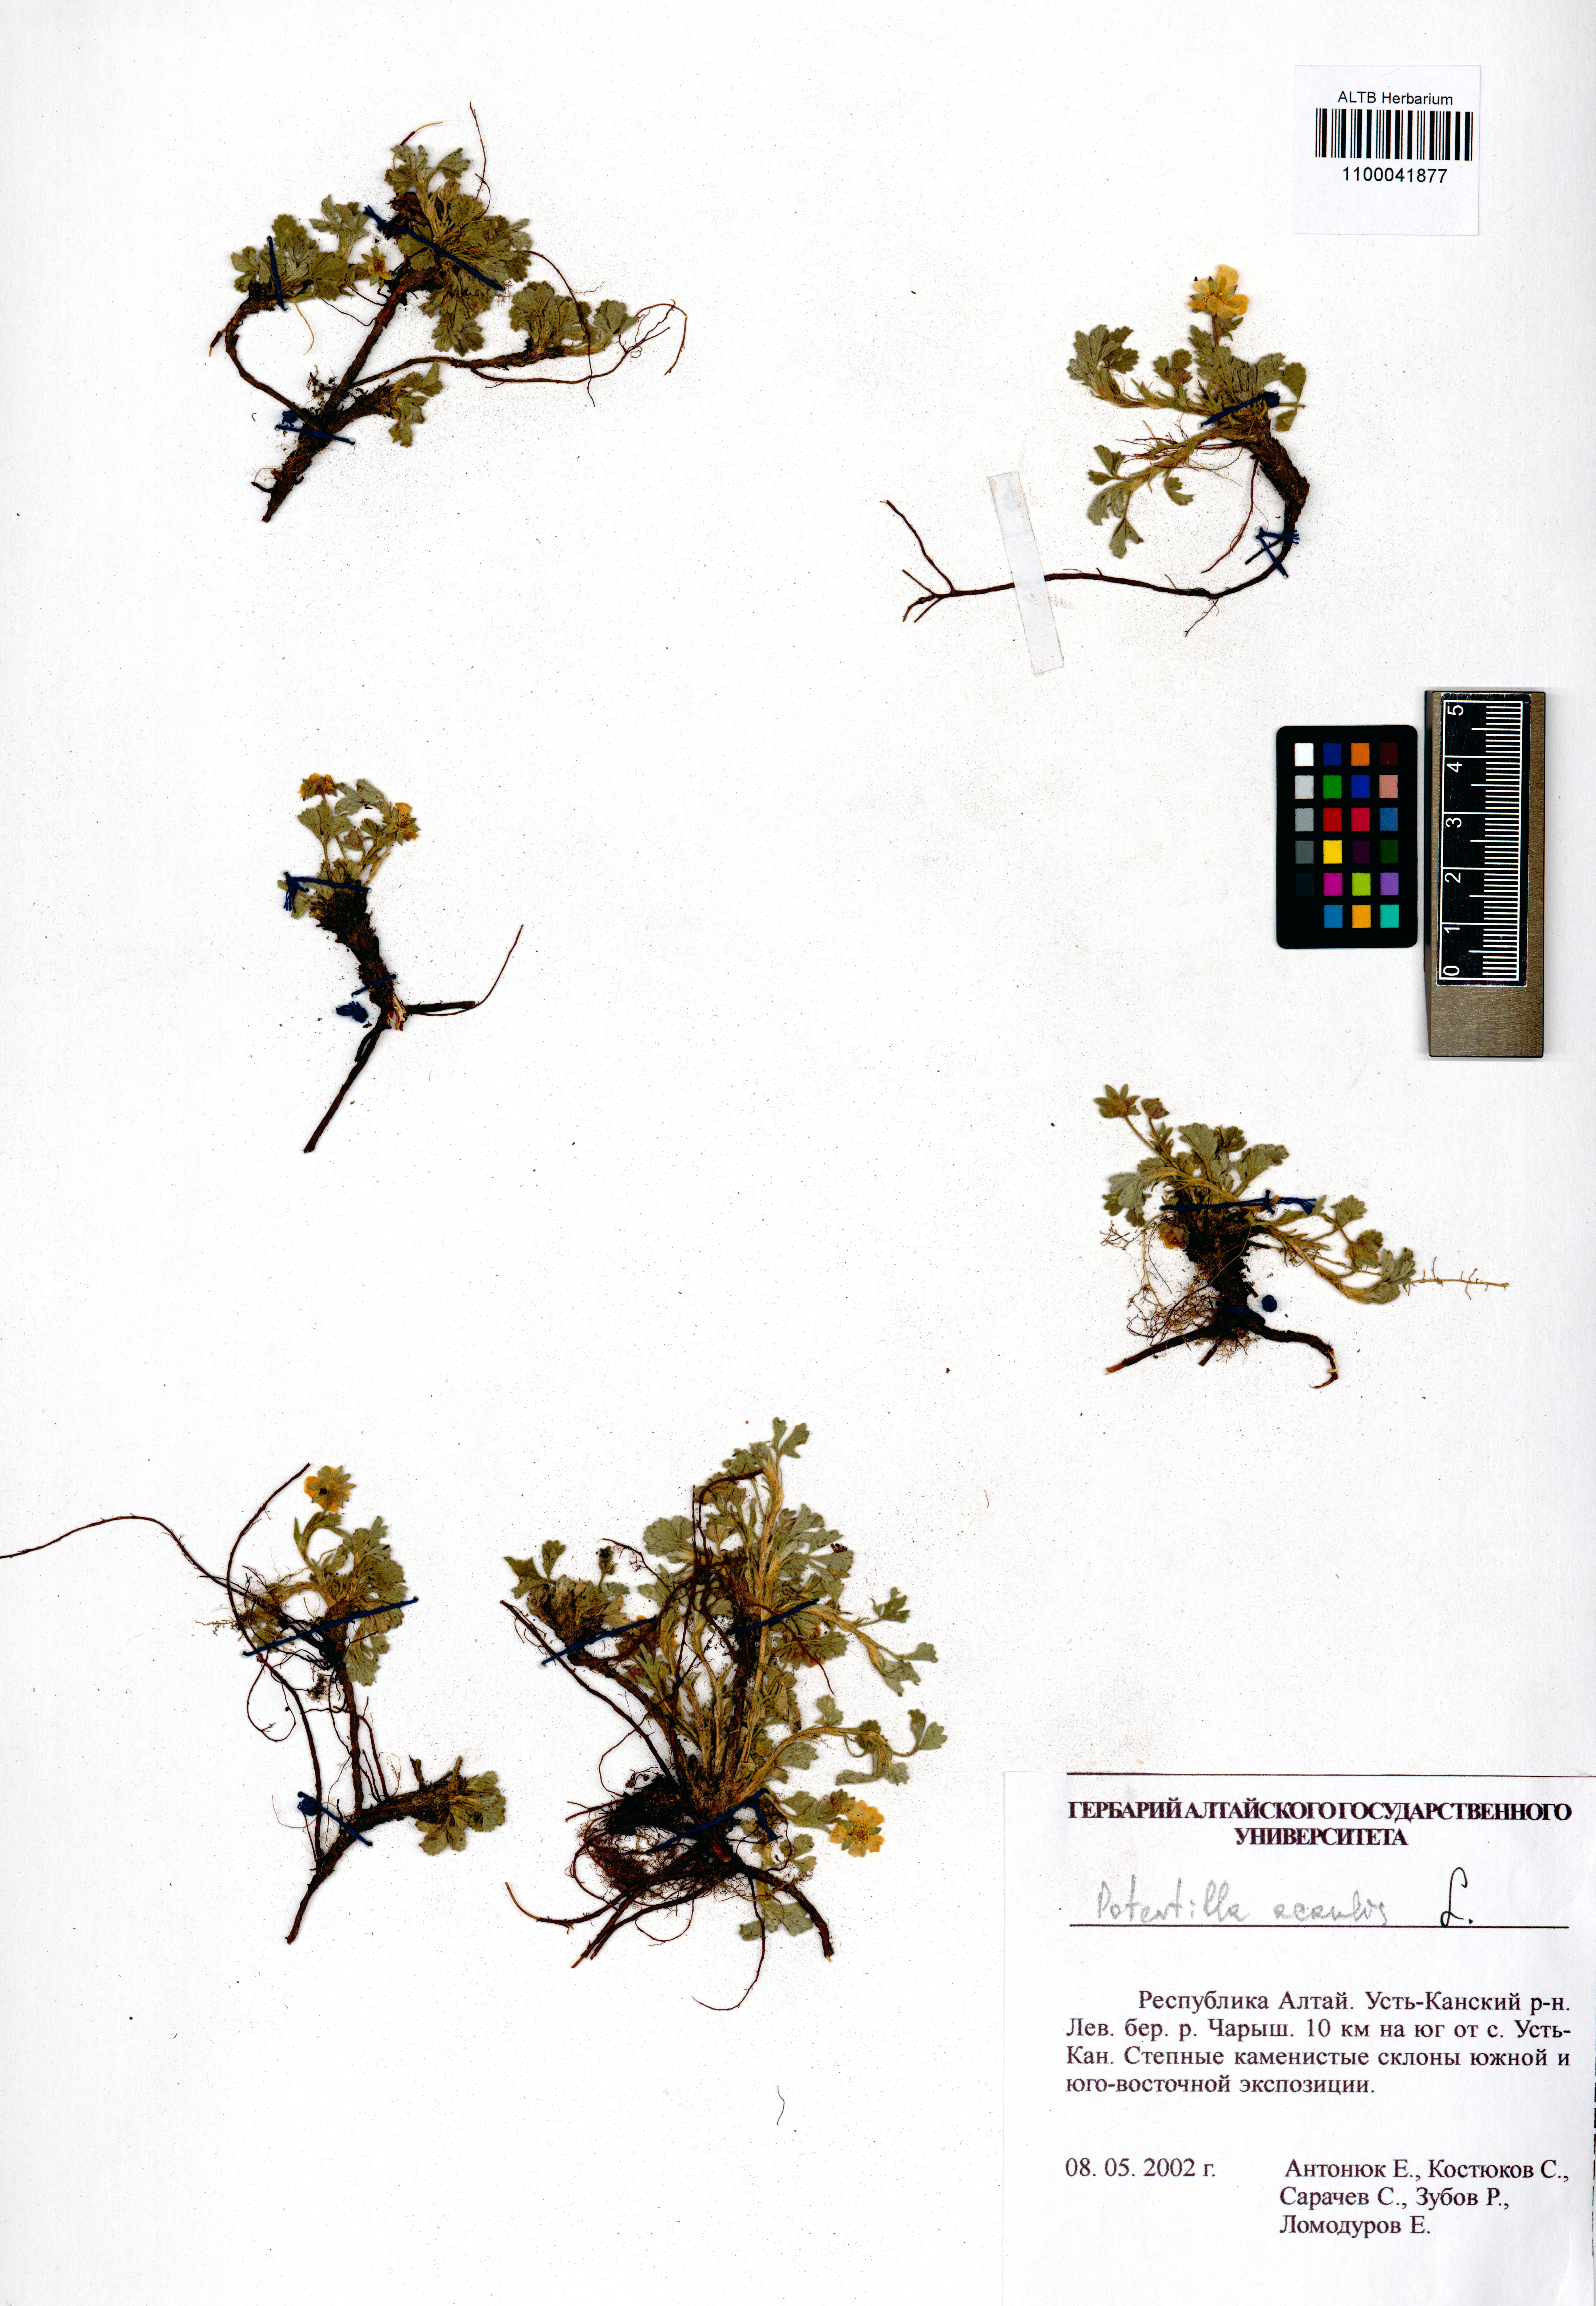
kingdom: Plantae
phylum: Tracheophyta
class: Magnoliopsida
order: Rosales
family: Rosaceae
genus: Potentilla
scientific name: Potentilla acaulis
